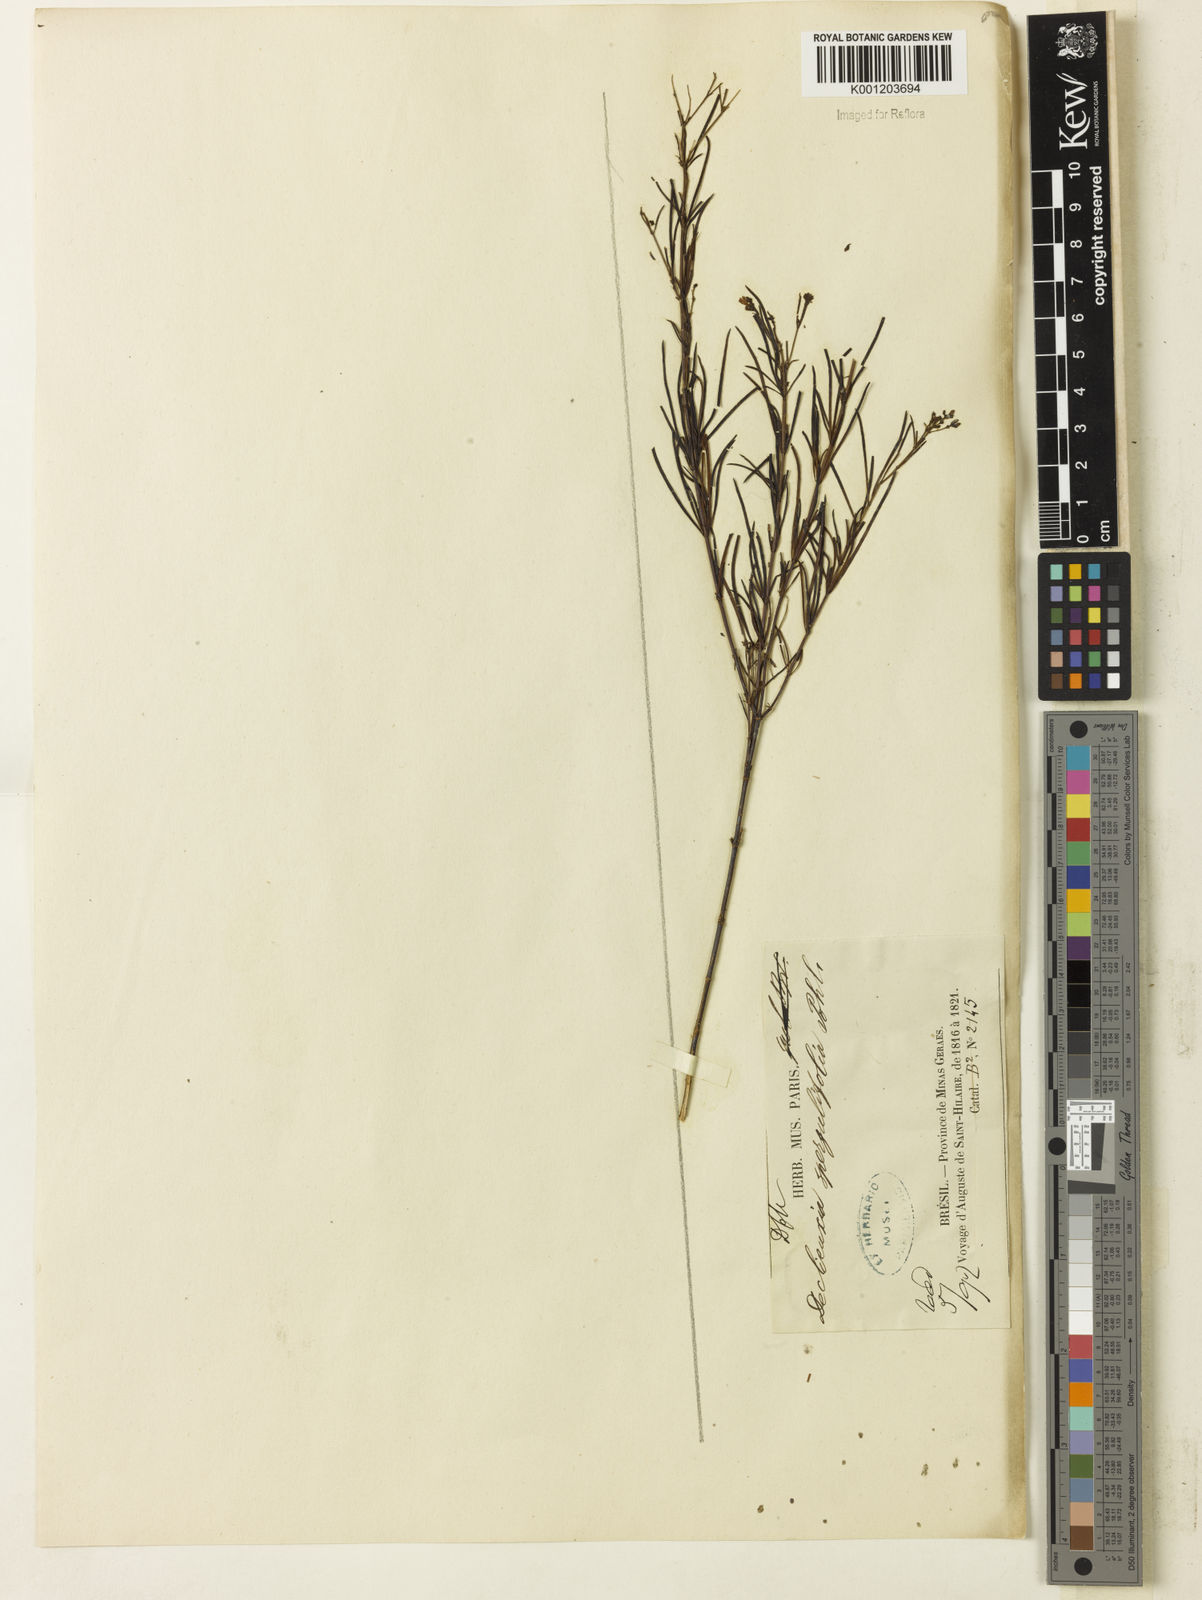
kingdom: Plantae
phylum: Tracheophyta
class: Magnoliopsida
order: Gentianales
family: Rubiaceae
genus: Declieuxia
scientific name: Declieuxia
